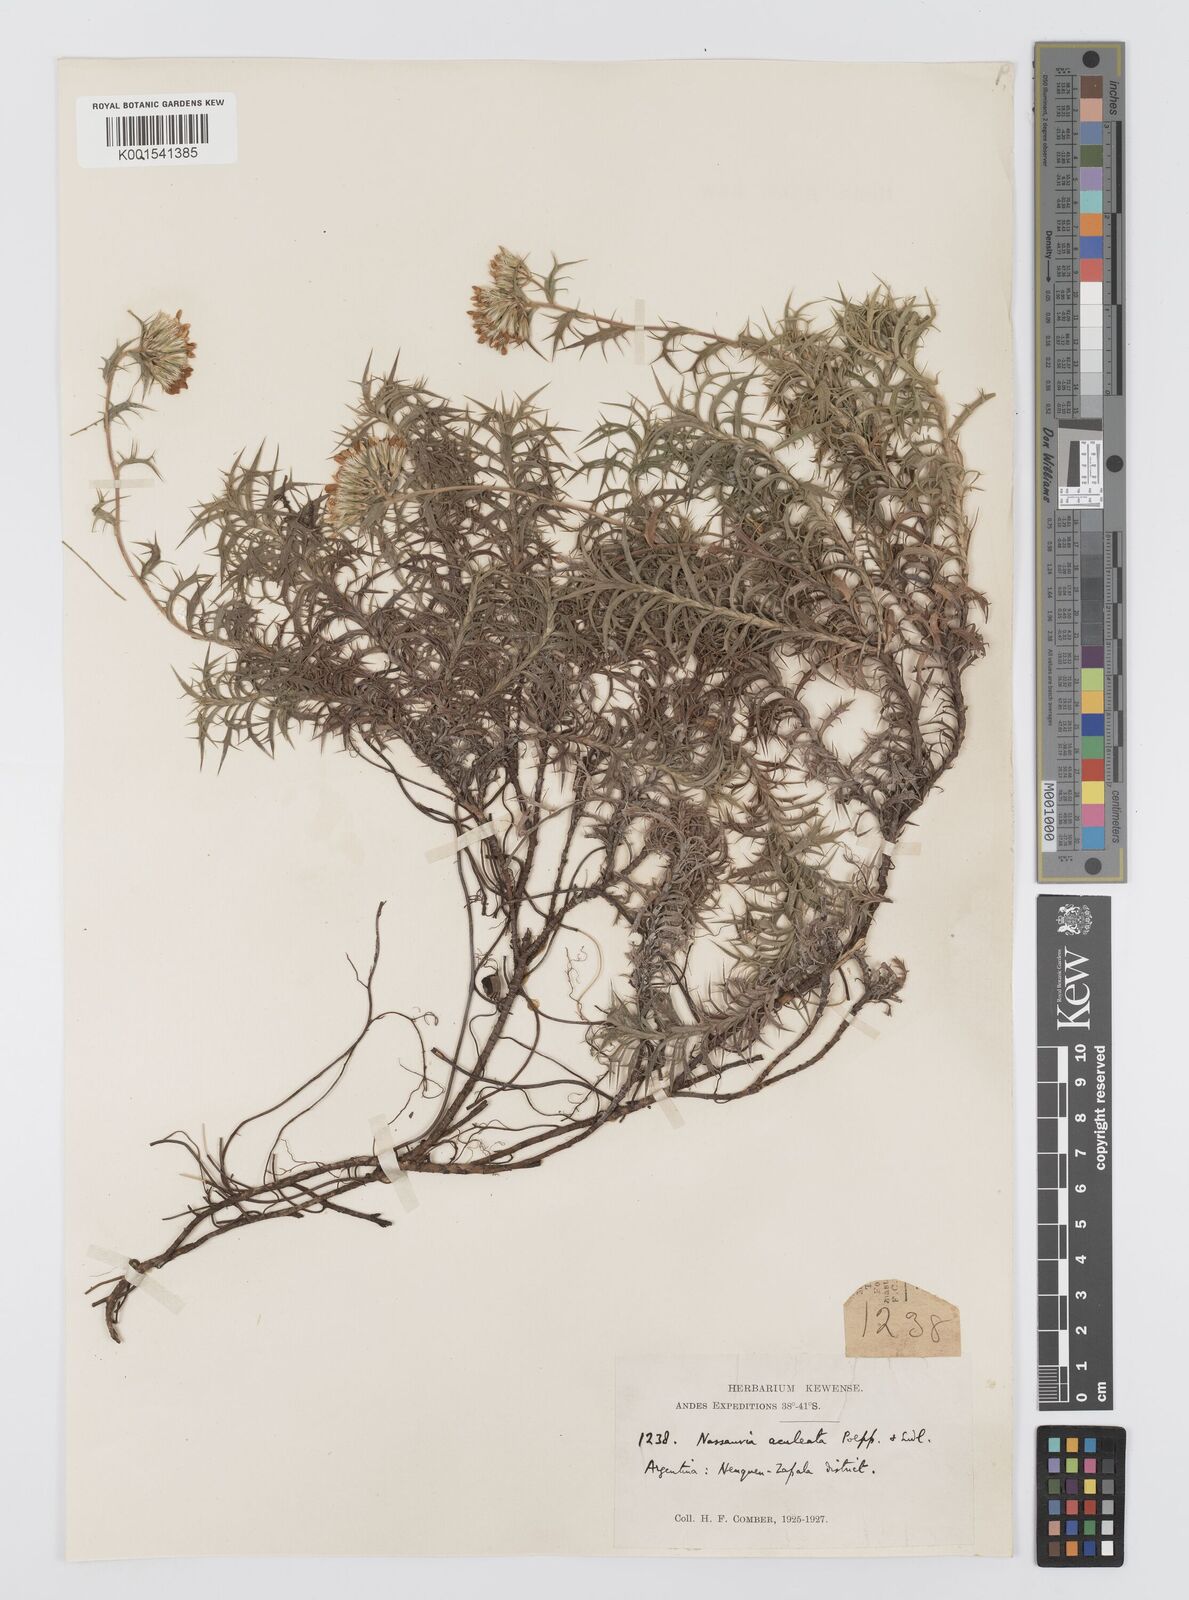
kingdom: Plantae
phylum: Tracheophyta
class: Magnoliopsida
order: Asterales
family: Asteraceae
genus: Nassauvia
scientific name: Nassauvia aculeata
